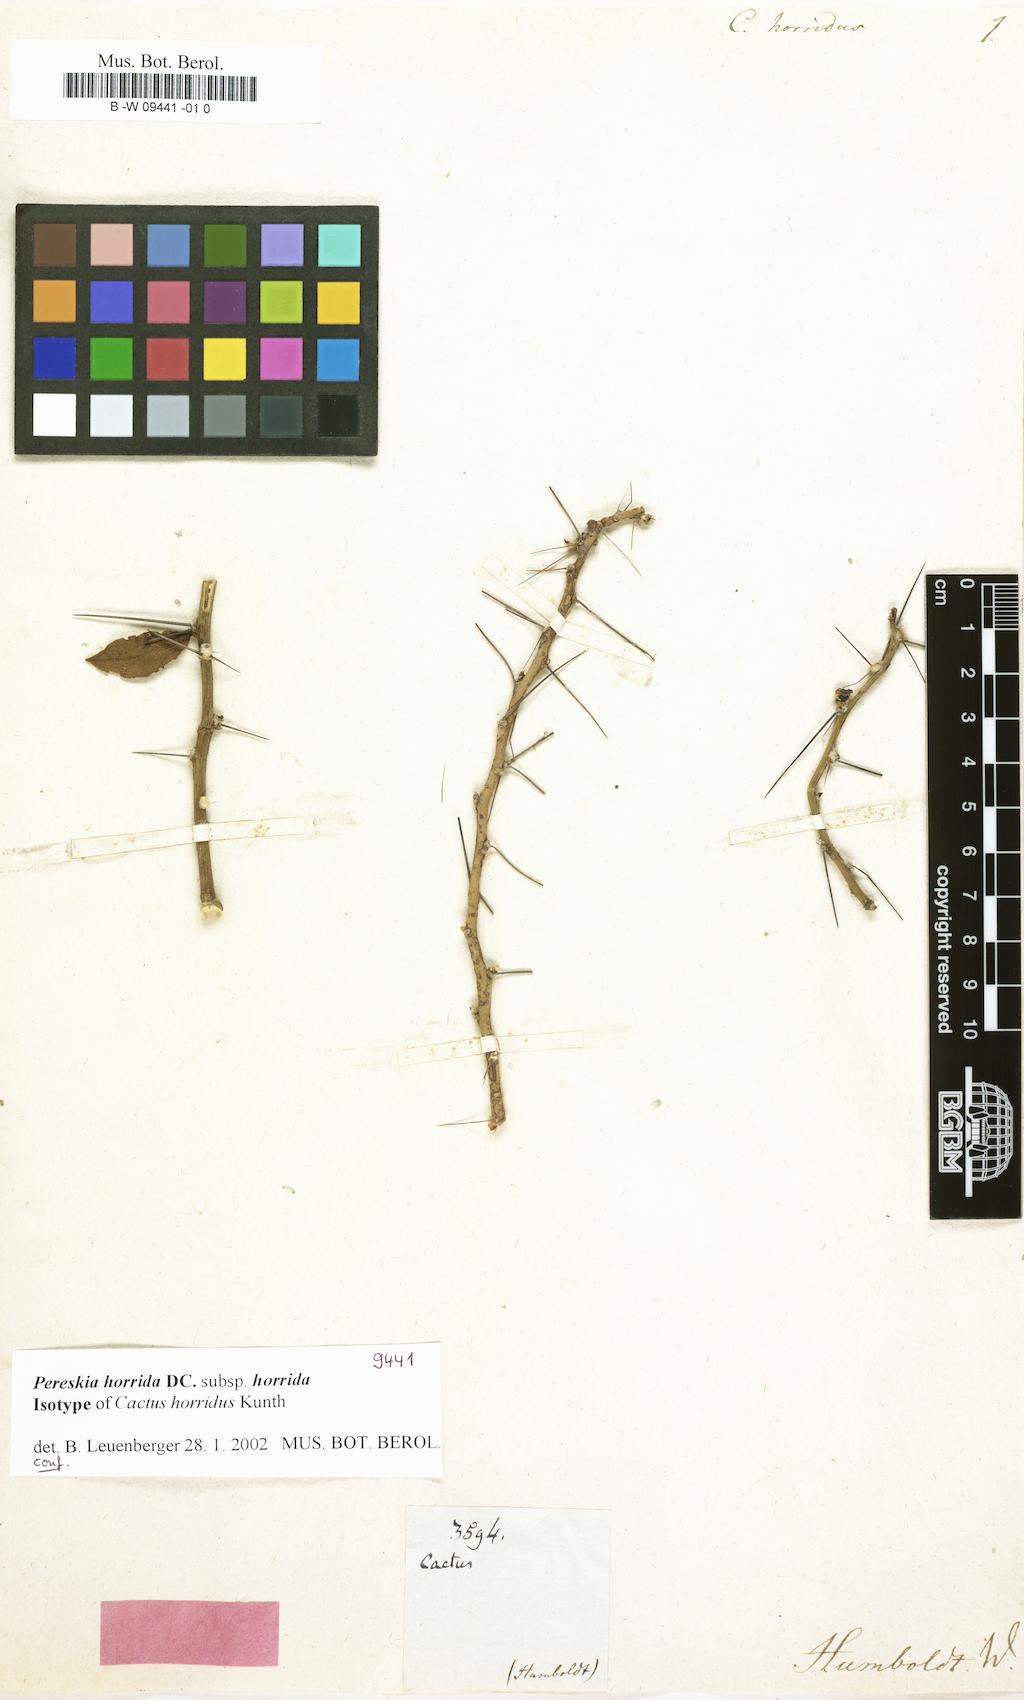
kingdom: Plantae
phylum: Tracheophyta
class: Magnoliopsida
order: Caryophyllales
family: Cactaceae
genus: Pereskia
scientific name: Pereskia horrida
